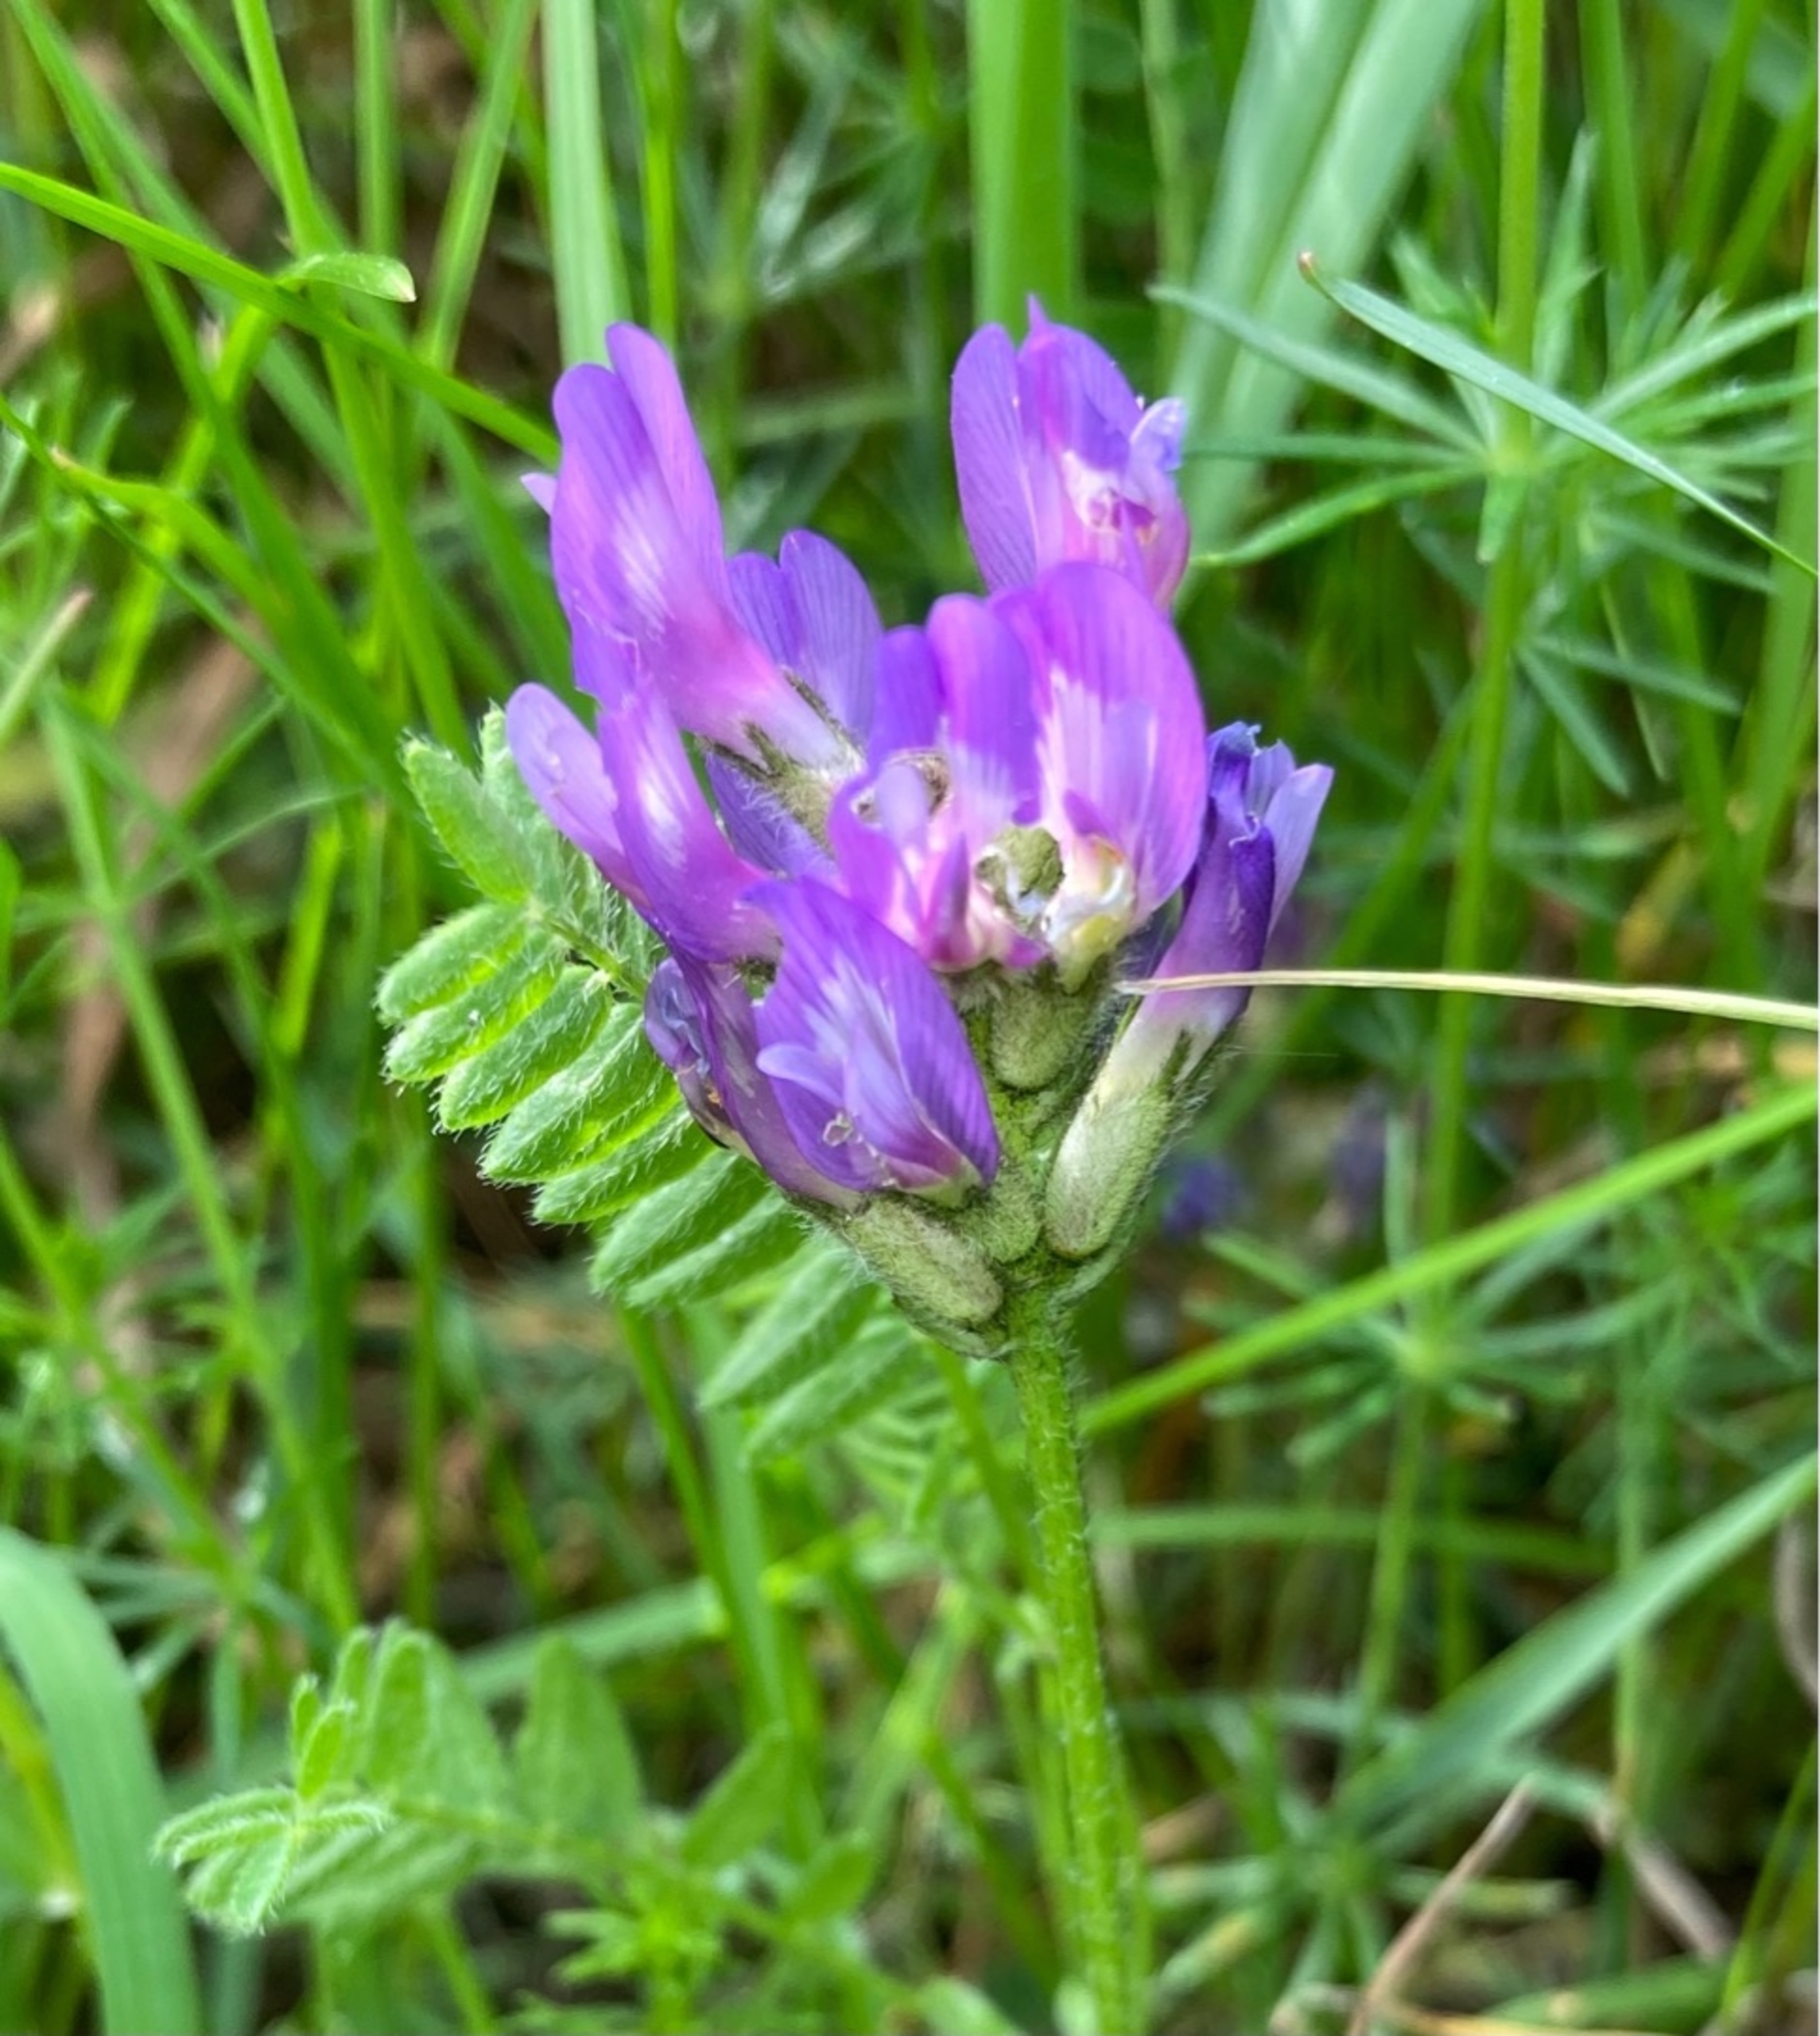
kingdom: Plantae
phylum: Tracheophyta
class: Magnoliopsida
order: Fabales
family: Fabaceae
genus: Astragalus
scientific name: Astragalus danicus
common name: Dansk astragel
